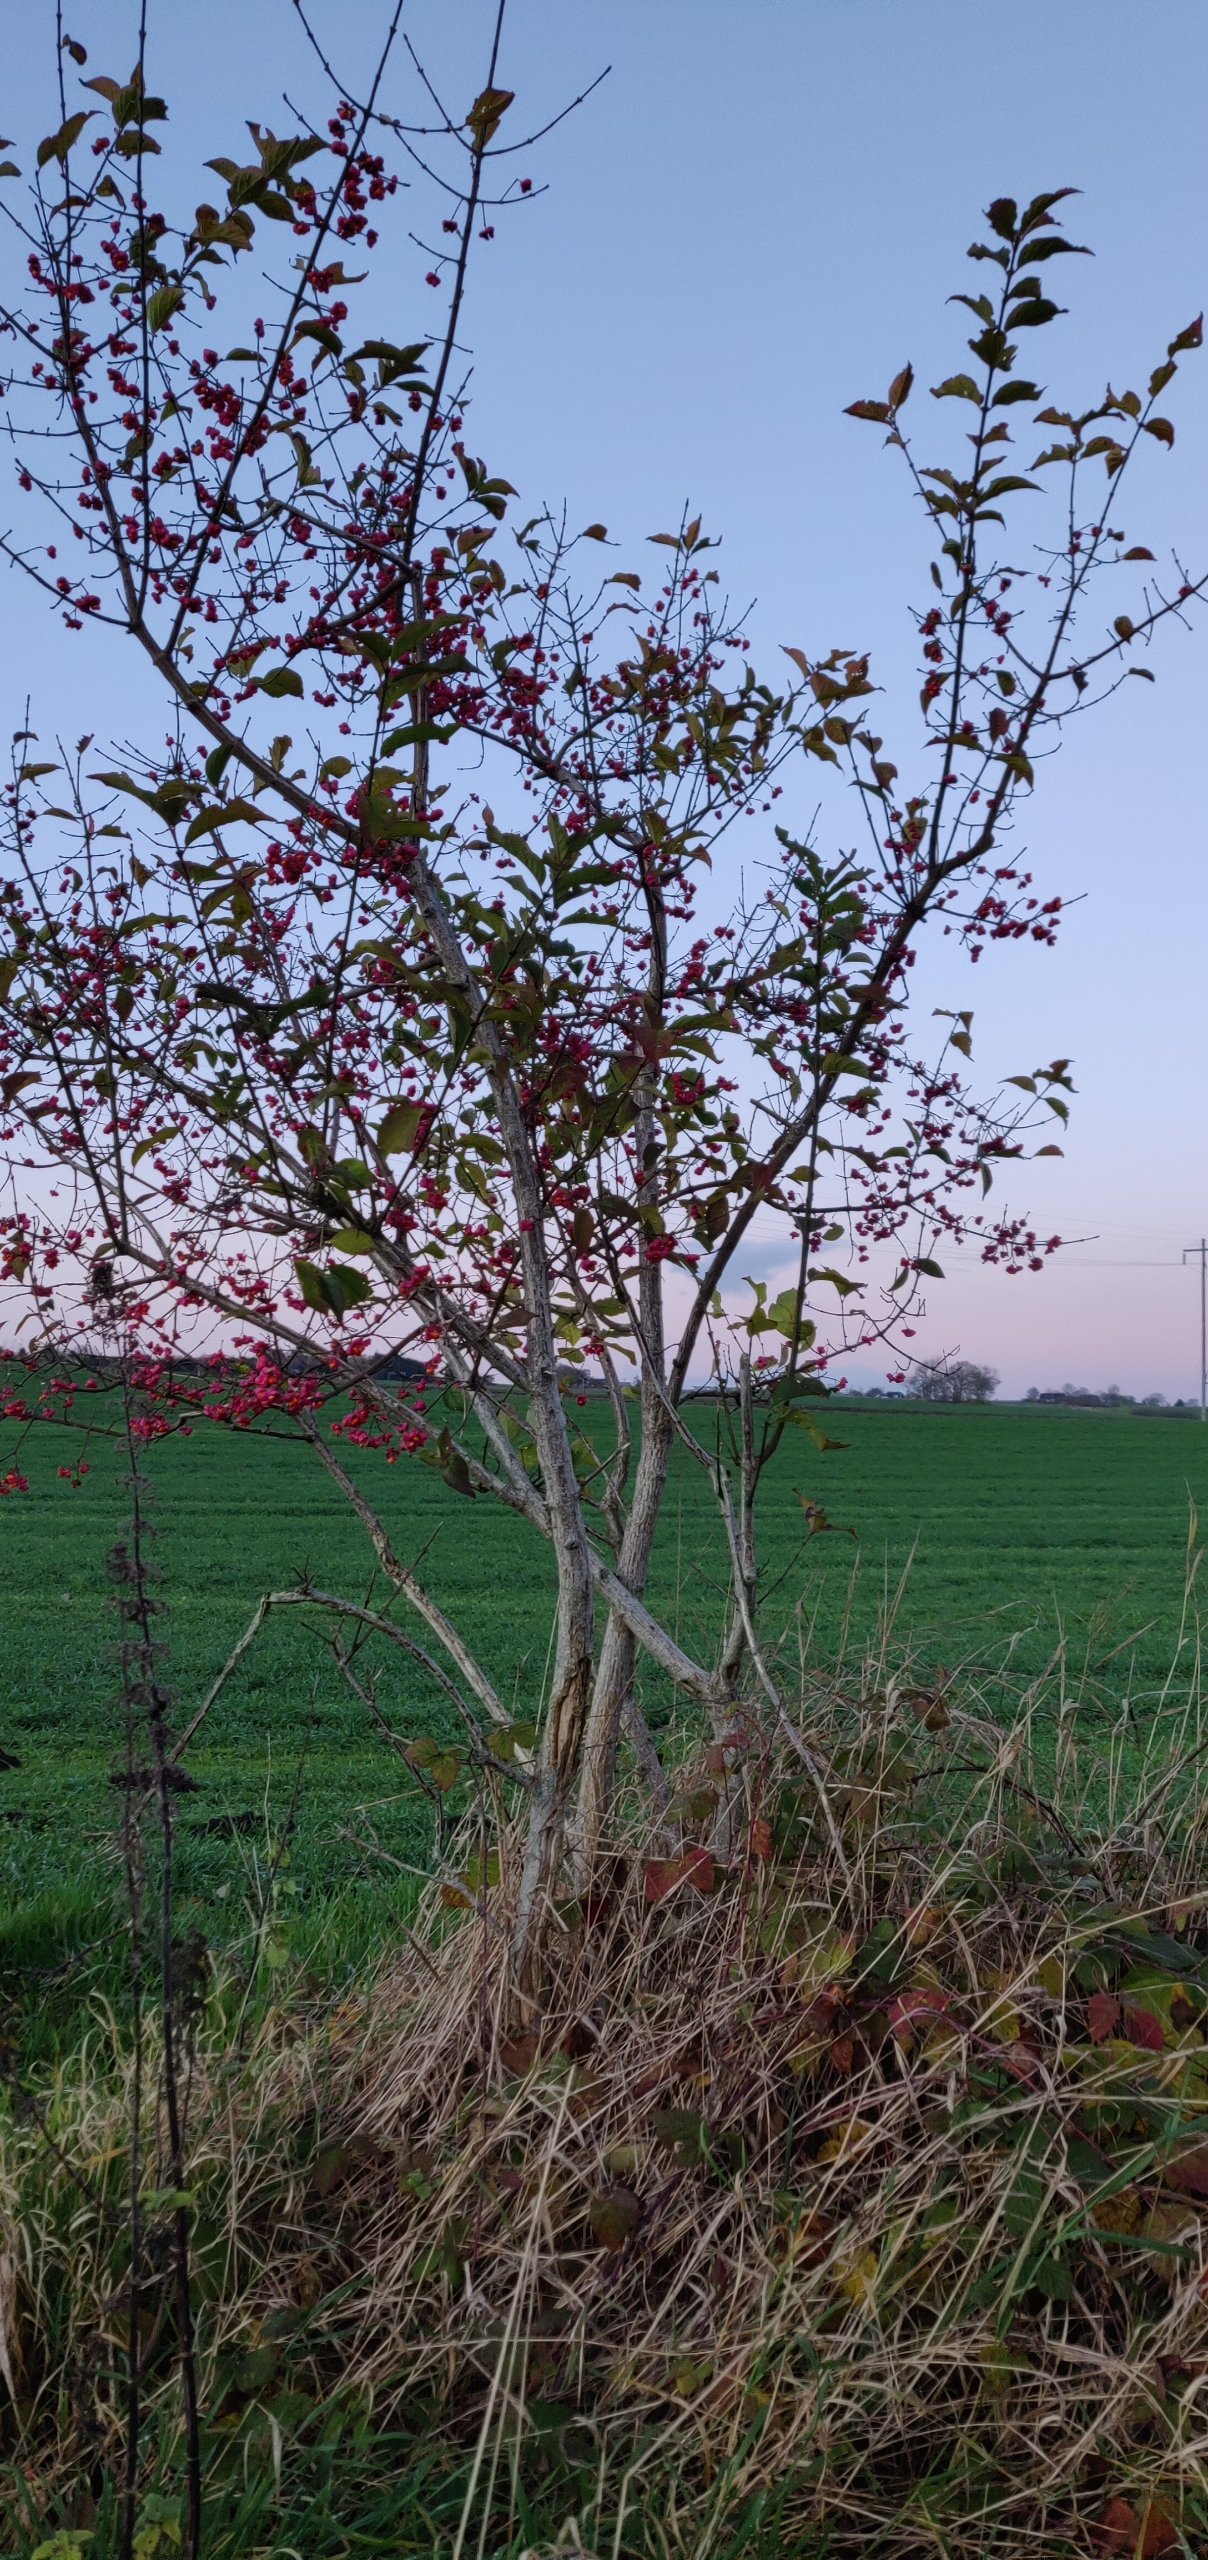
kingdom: Plantae
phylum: Tracheophyta
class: Magnoliopsida
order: Celastrales
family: Celastraceae
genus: Euonymus
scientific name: Euonymus europaeus
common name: Benved
